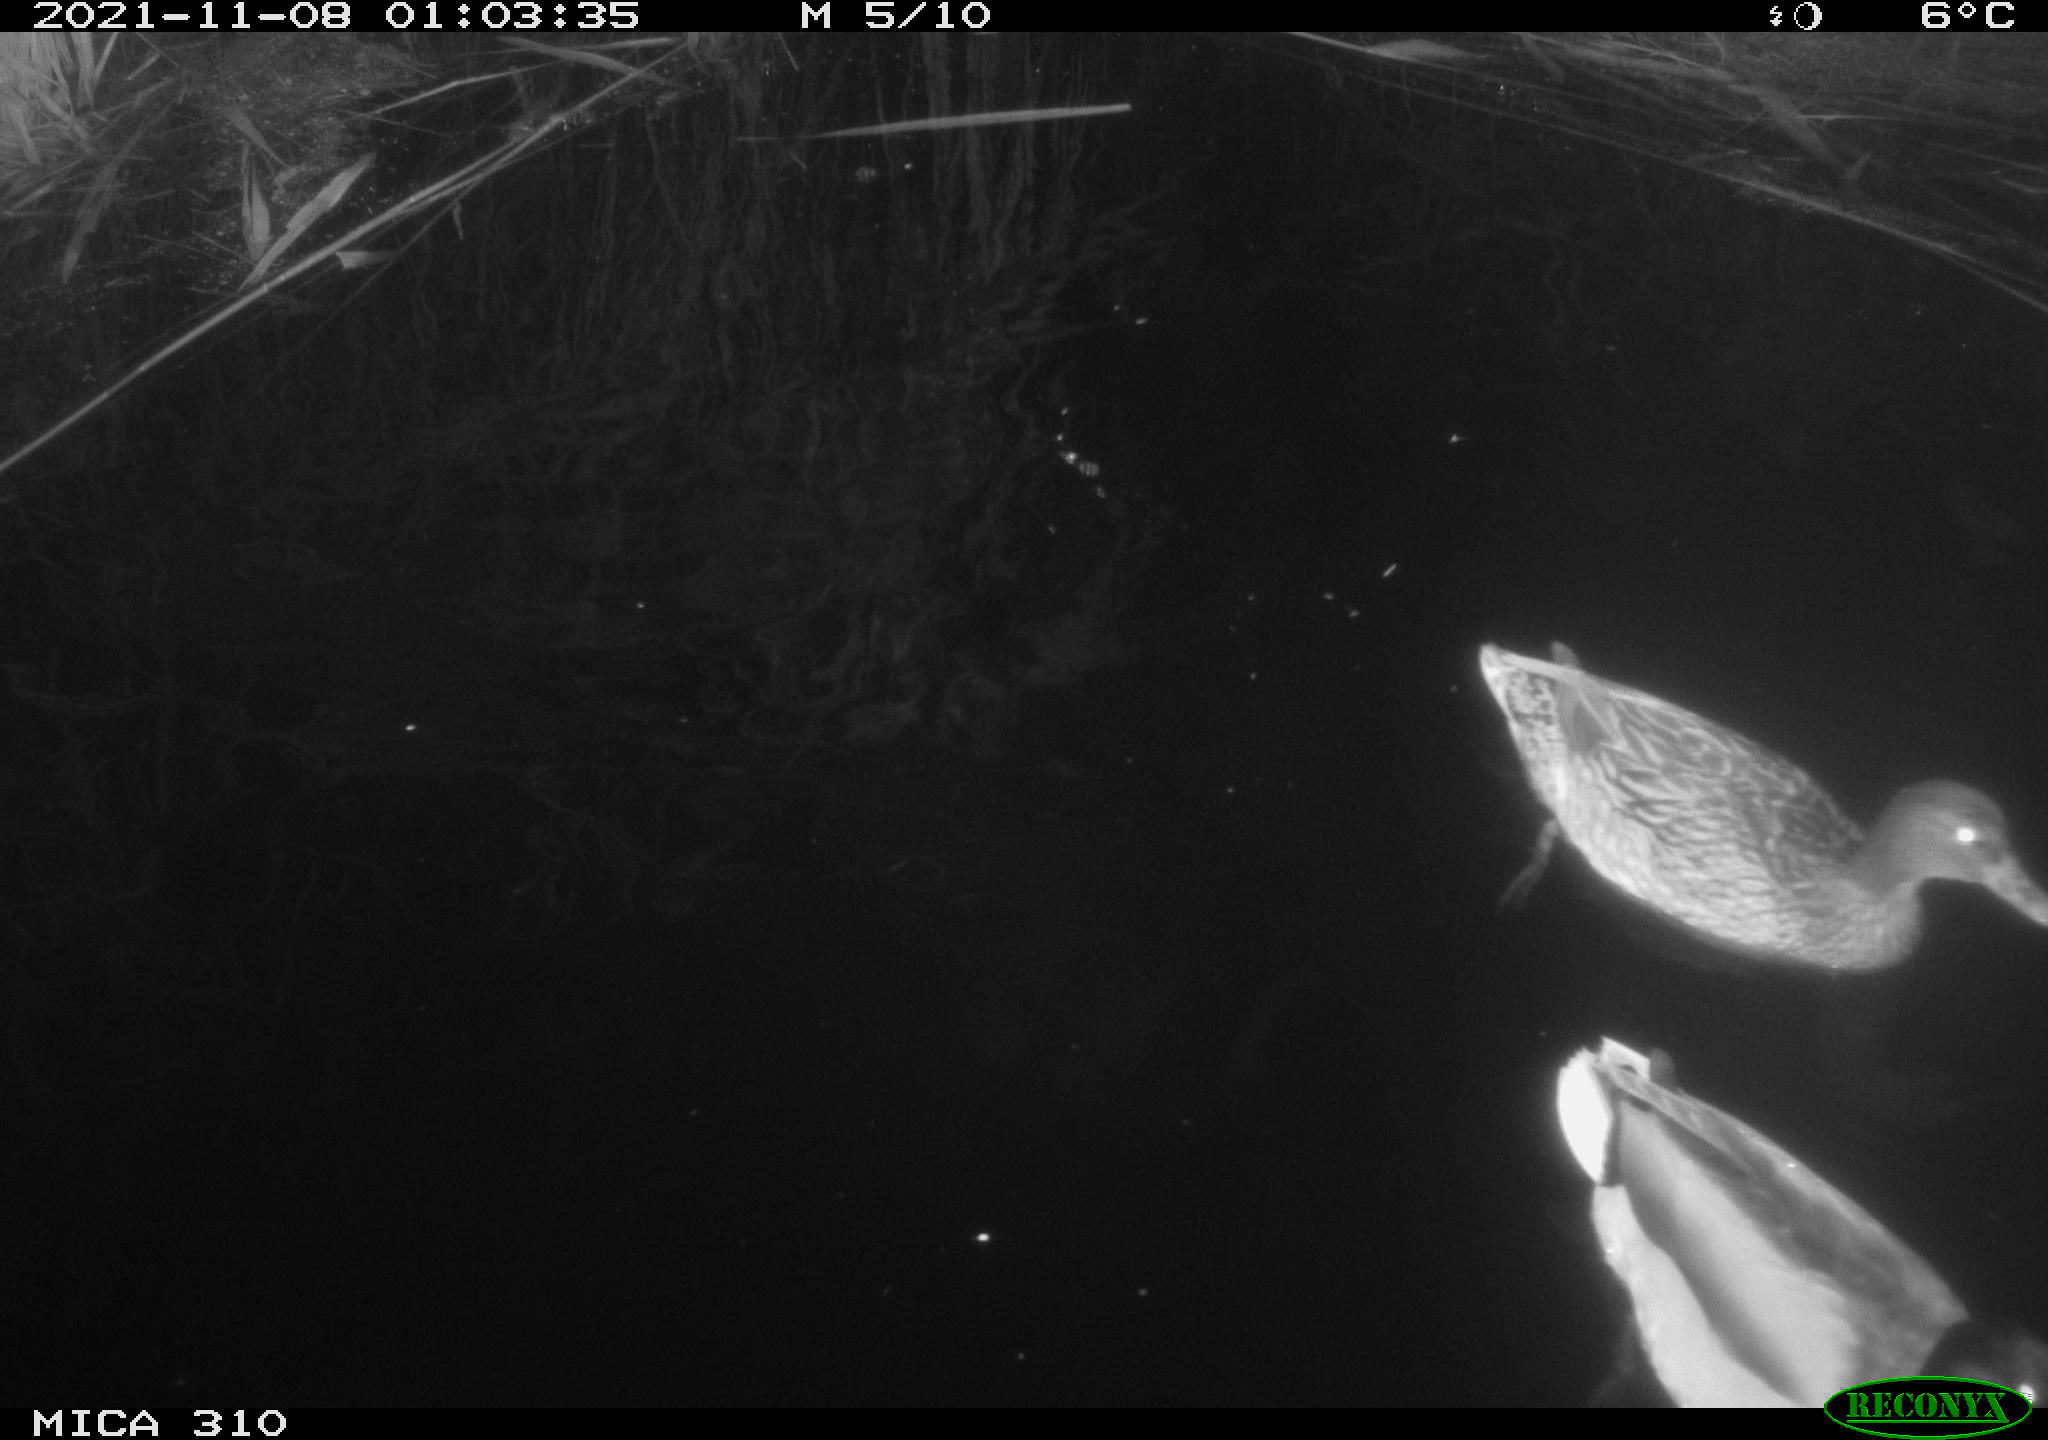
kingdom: Animalia
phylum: Chordata
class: Aves
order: Anseriformes
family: Anatidae
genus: Anas
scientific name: Anas platyrhynchos
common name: Mallard
